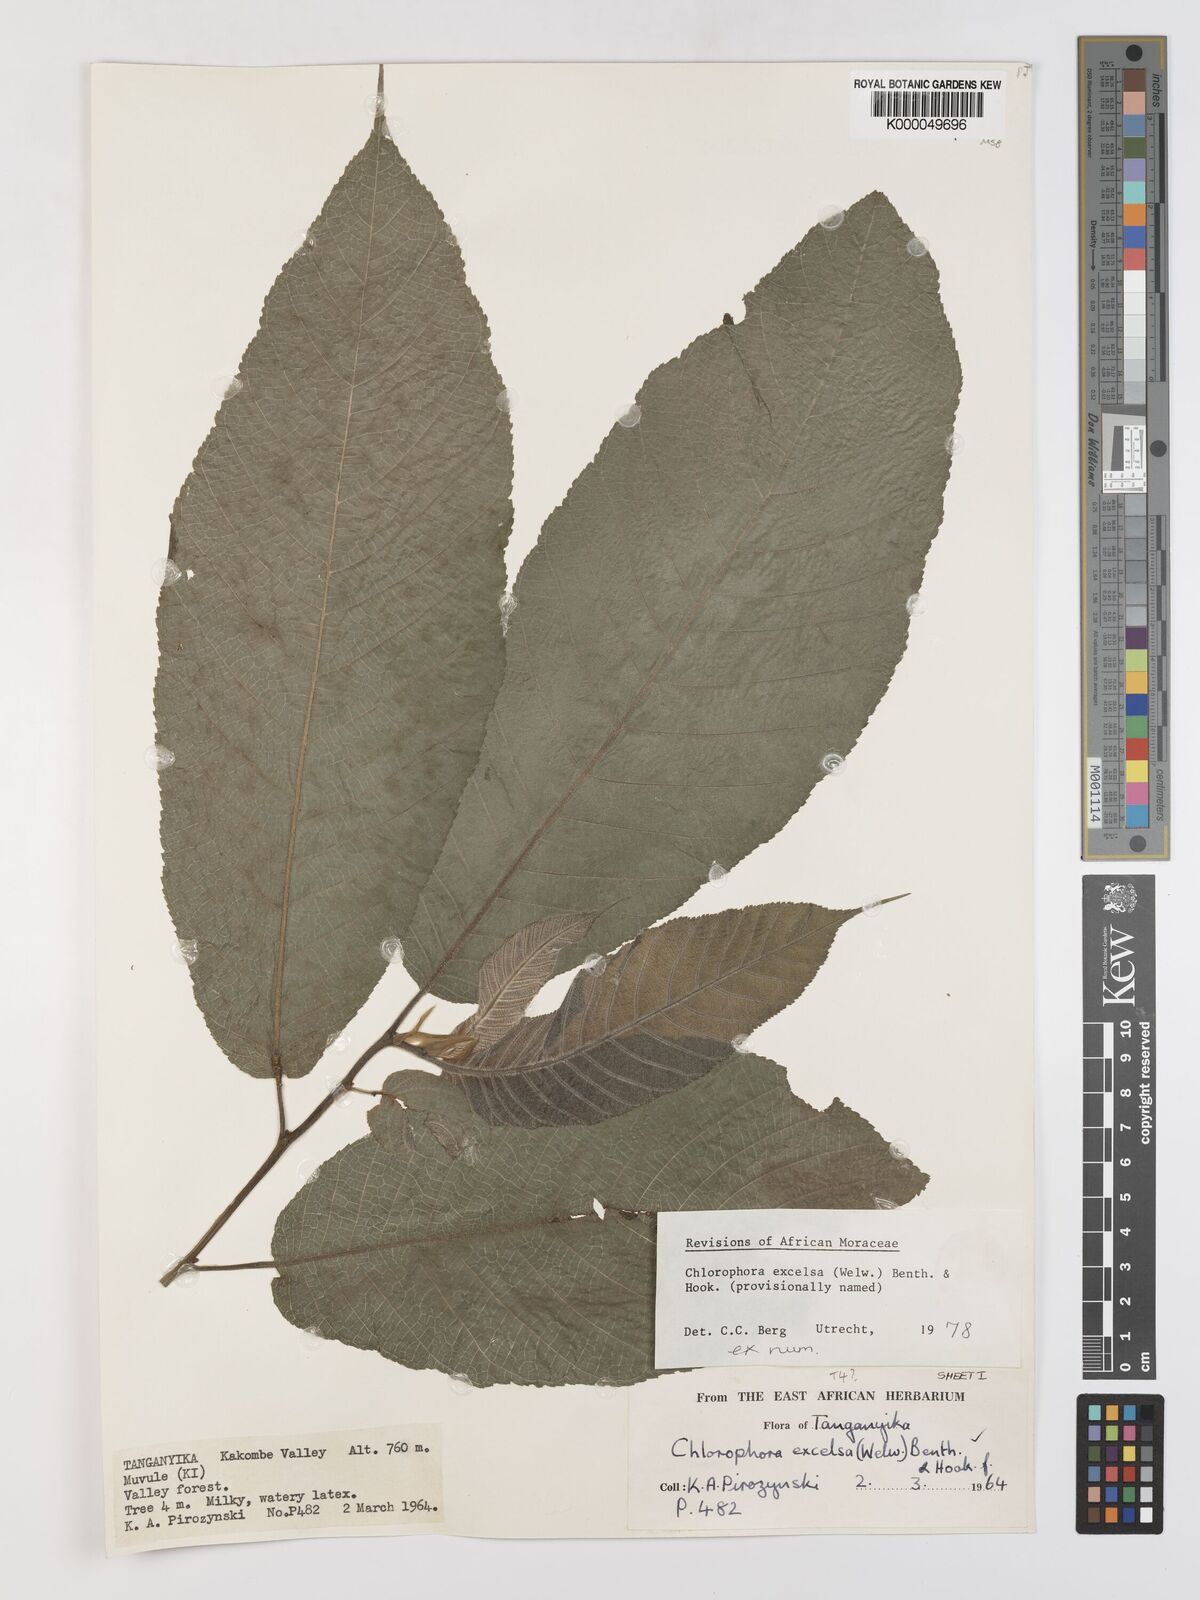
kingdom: Plantae
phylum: Tracheophyta
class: Magnoliopsida
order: Rosales
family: Moraceae
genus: Milicia
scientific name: Milicia excelsa
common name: African teak
